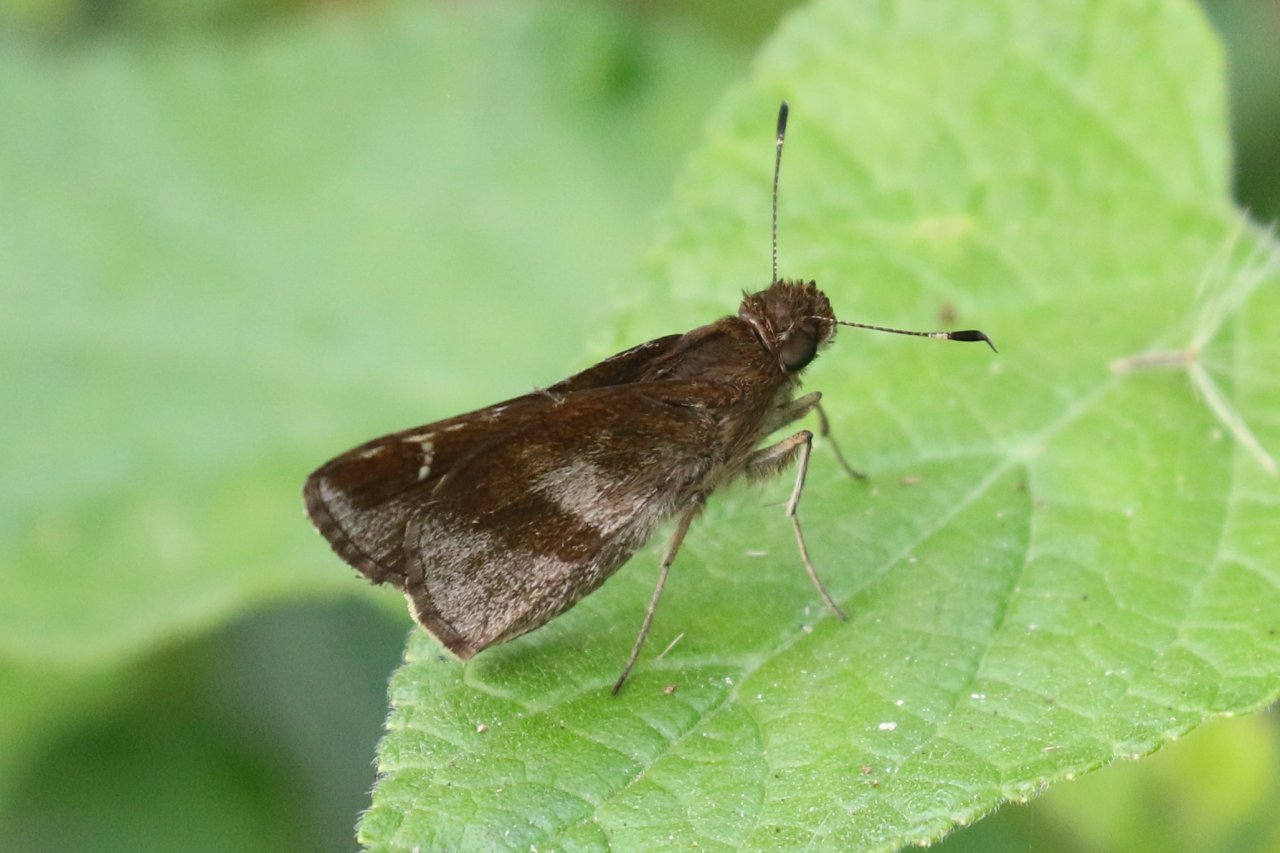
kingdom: Animalia
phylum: Arthropoda
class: Insecta
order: Lepidoptera
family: Hesperiidae
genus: Lerema
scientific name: Lerema accius
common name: Clouded Skipper
